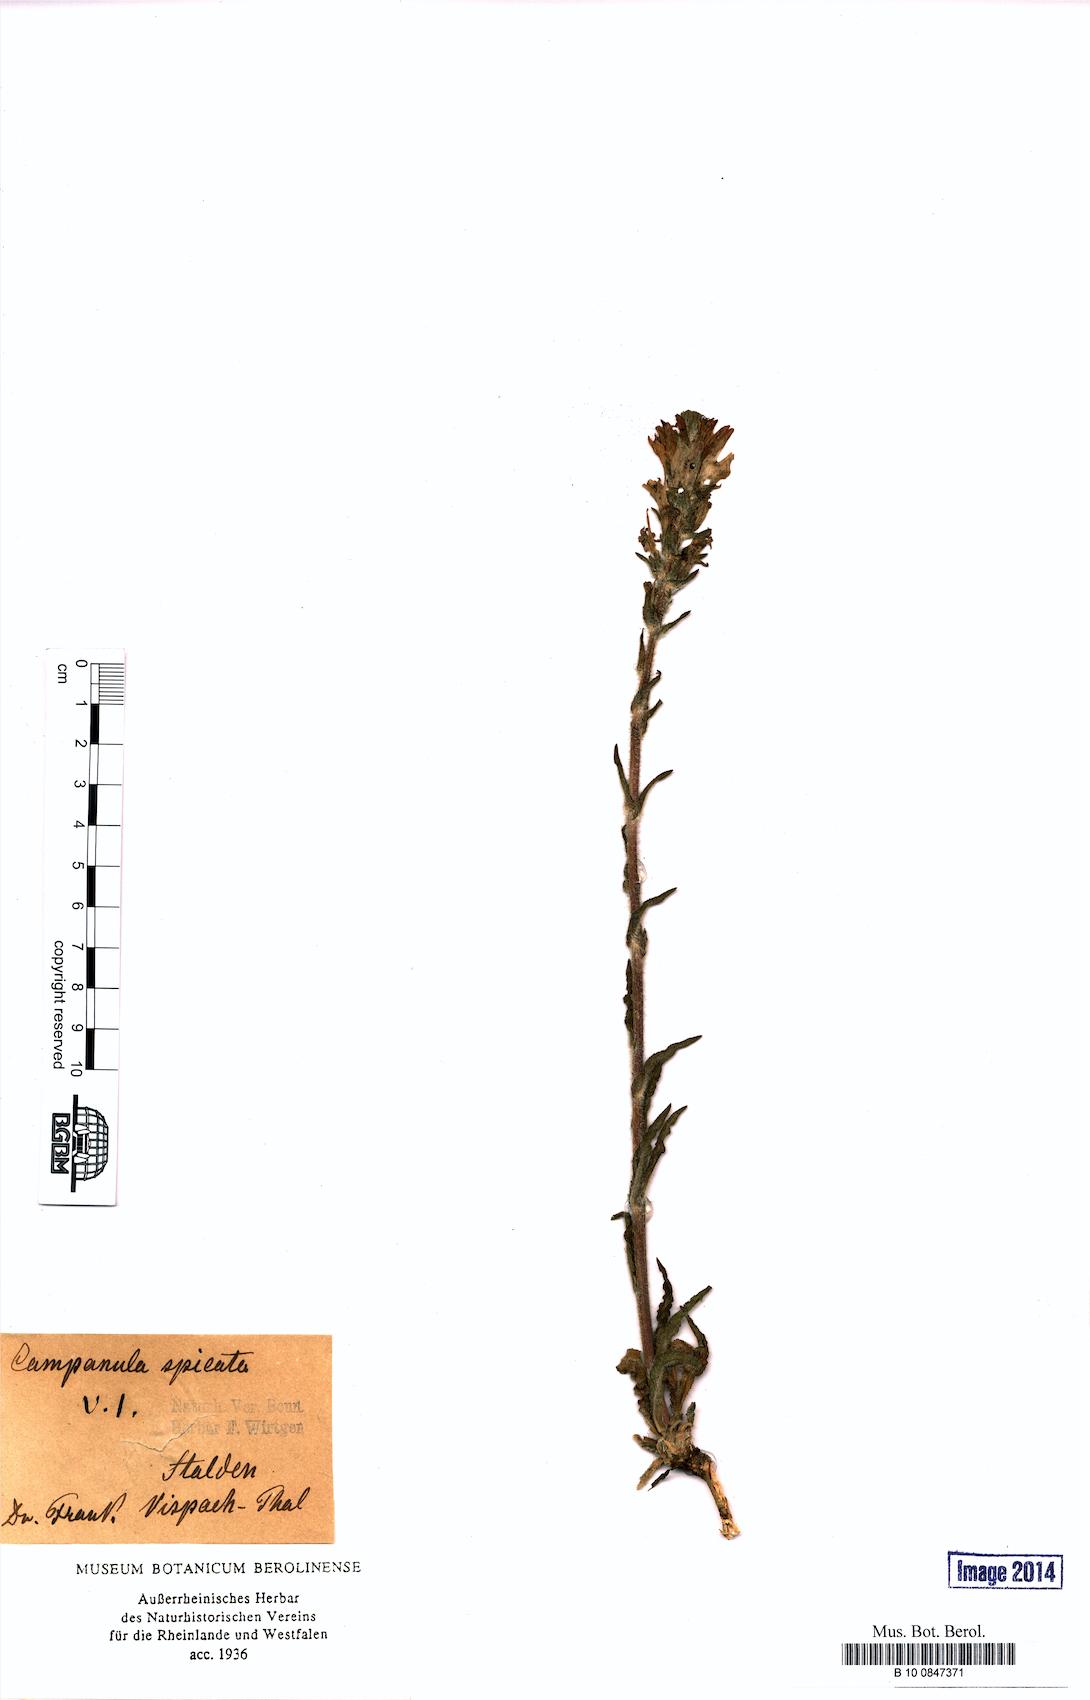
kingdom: Plantae
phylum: Tracheophyta
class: Magnoliopsida
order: Asterales
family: Campanulaceae
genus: Campanula
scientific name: Campanula spicata
